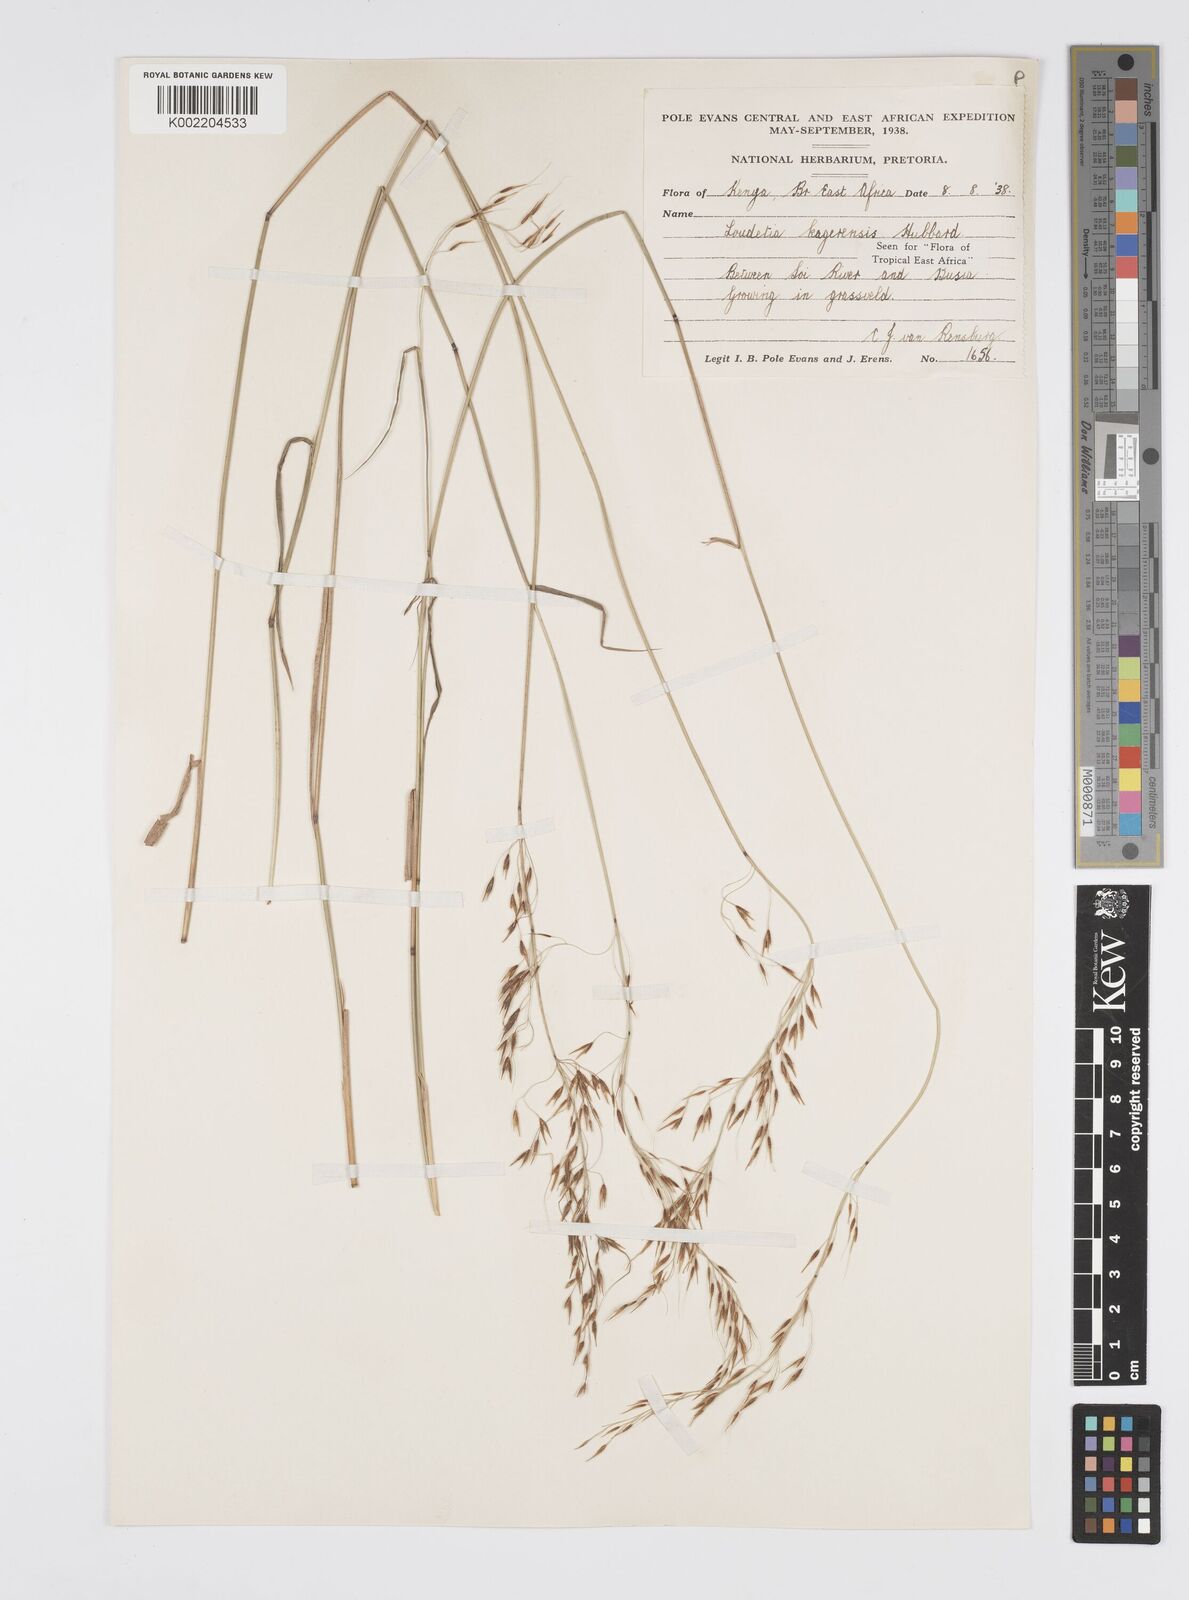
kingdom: Plantae
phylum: Tracheophyta
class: Liliopsida
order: Poales
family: Poaceae
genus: Loudetia
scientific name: Loudetia kagerensis
